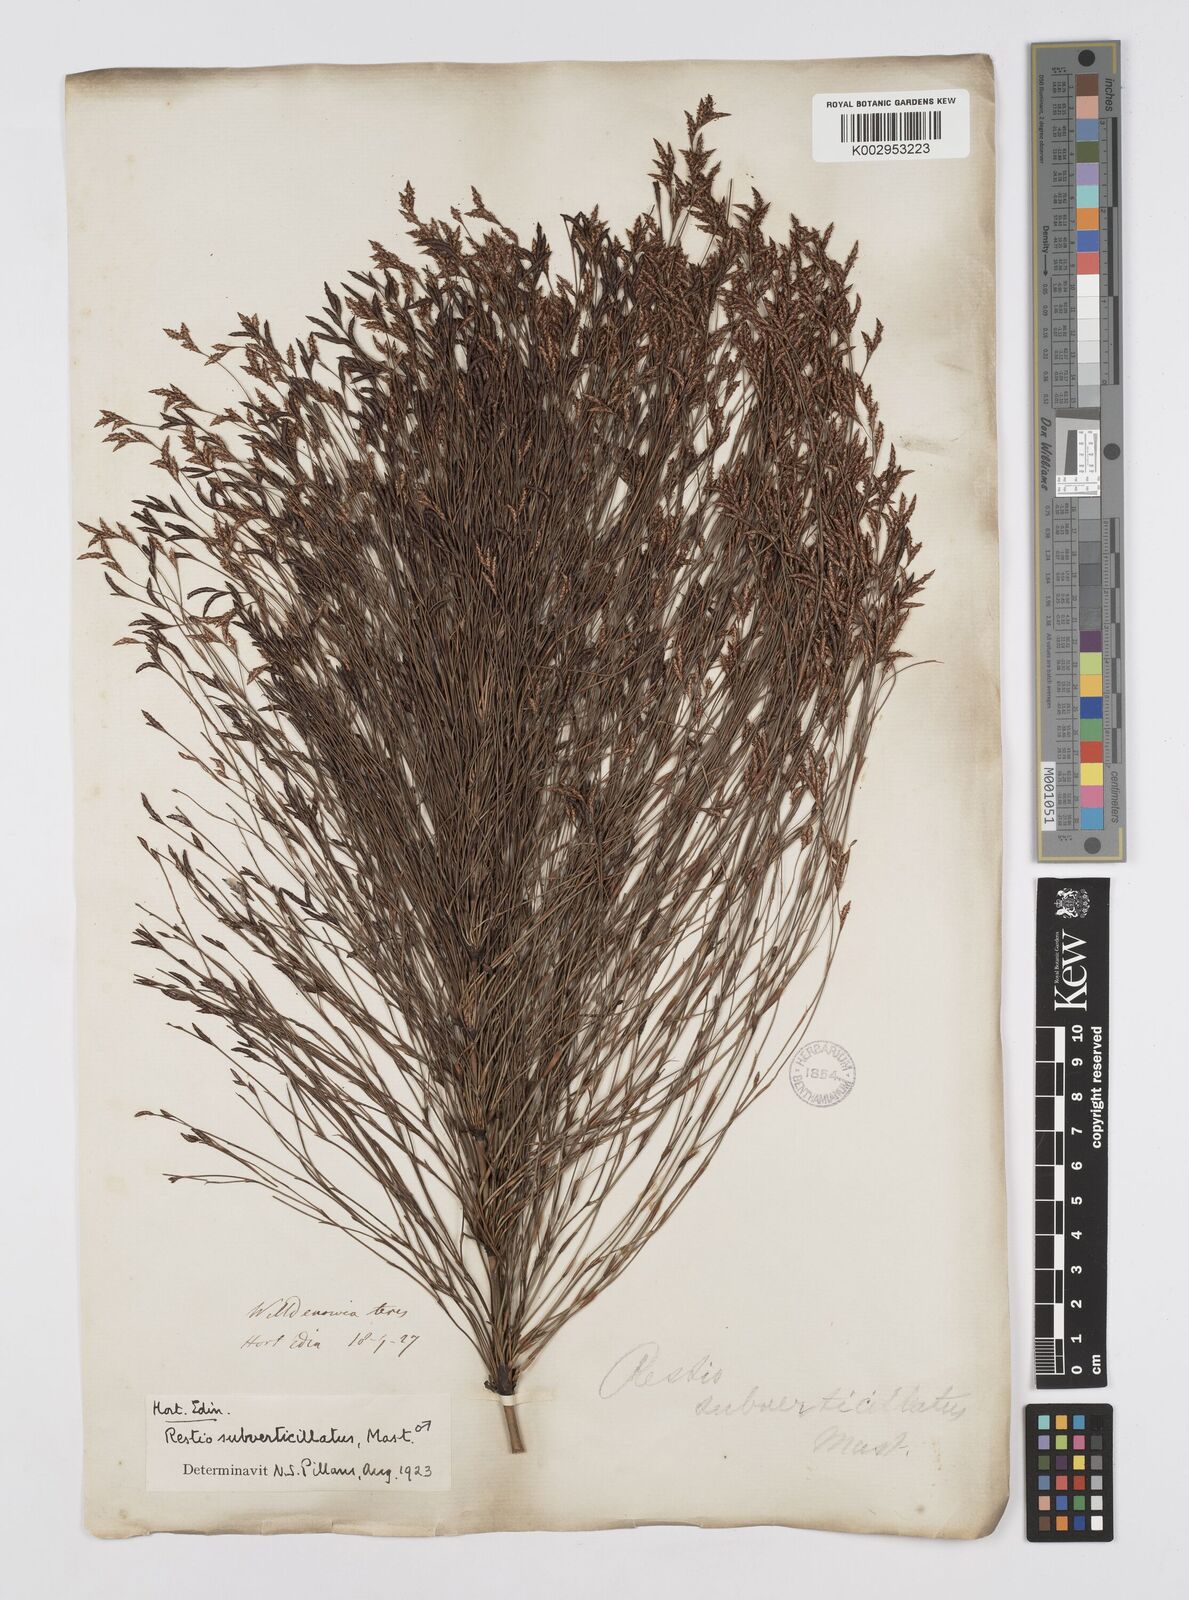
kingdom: Plantae
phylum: Tracheophyta
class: Liliopsida
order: Poales
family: Restionaceae
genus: Restio
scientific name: Restio subverticillatus
